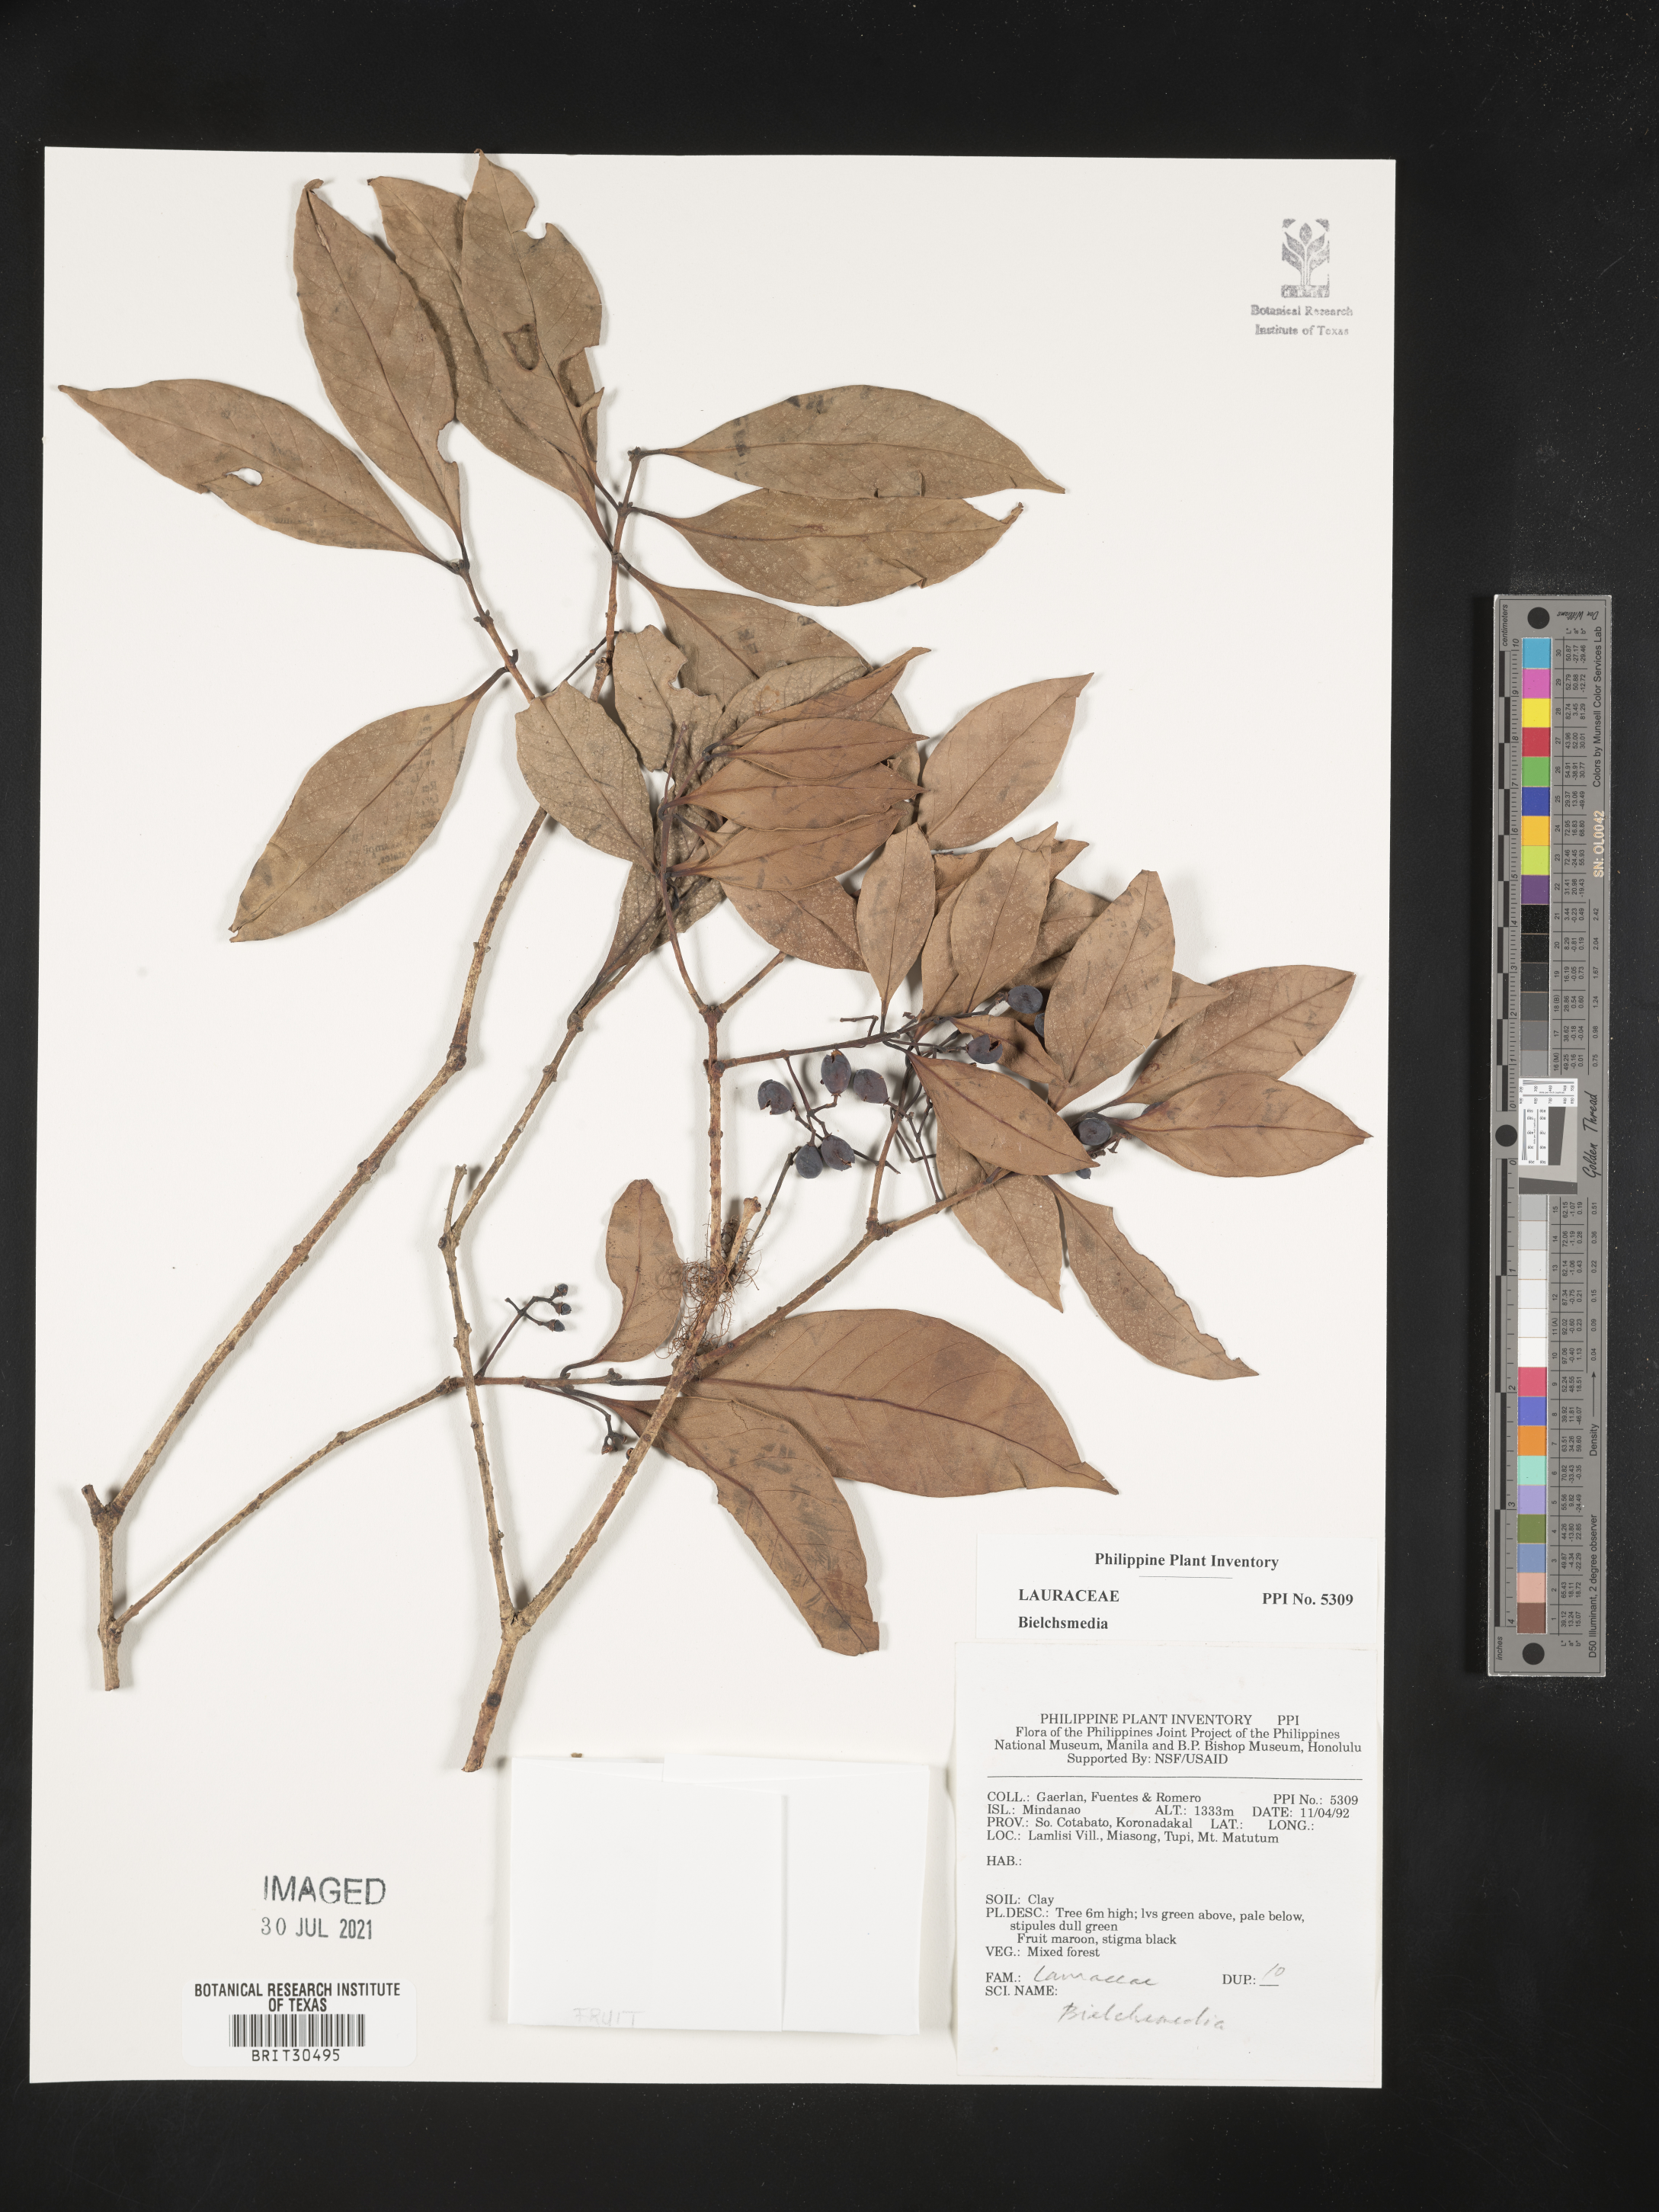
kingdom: Plantae
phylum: Tracheophyta
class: Magnoliopsida
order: Laurales
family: Lauraceae
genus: Beilschmiedia
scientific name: Beilschmiedia
